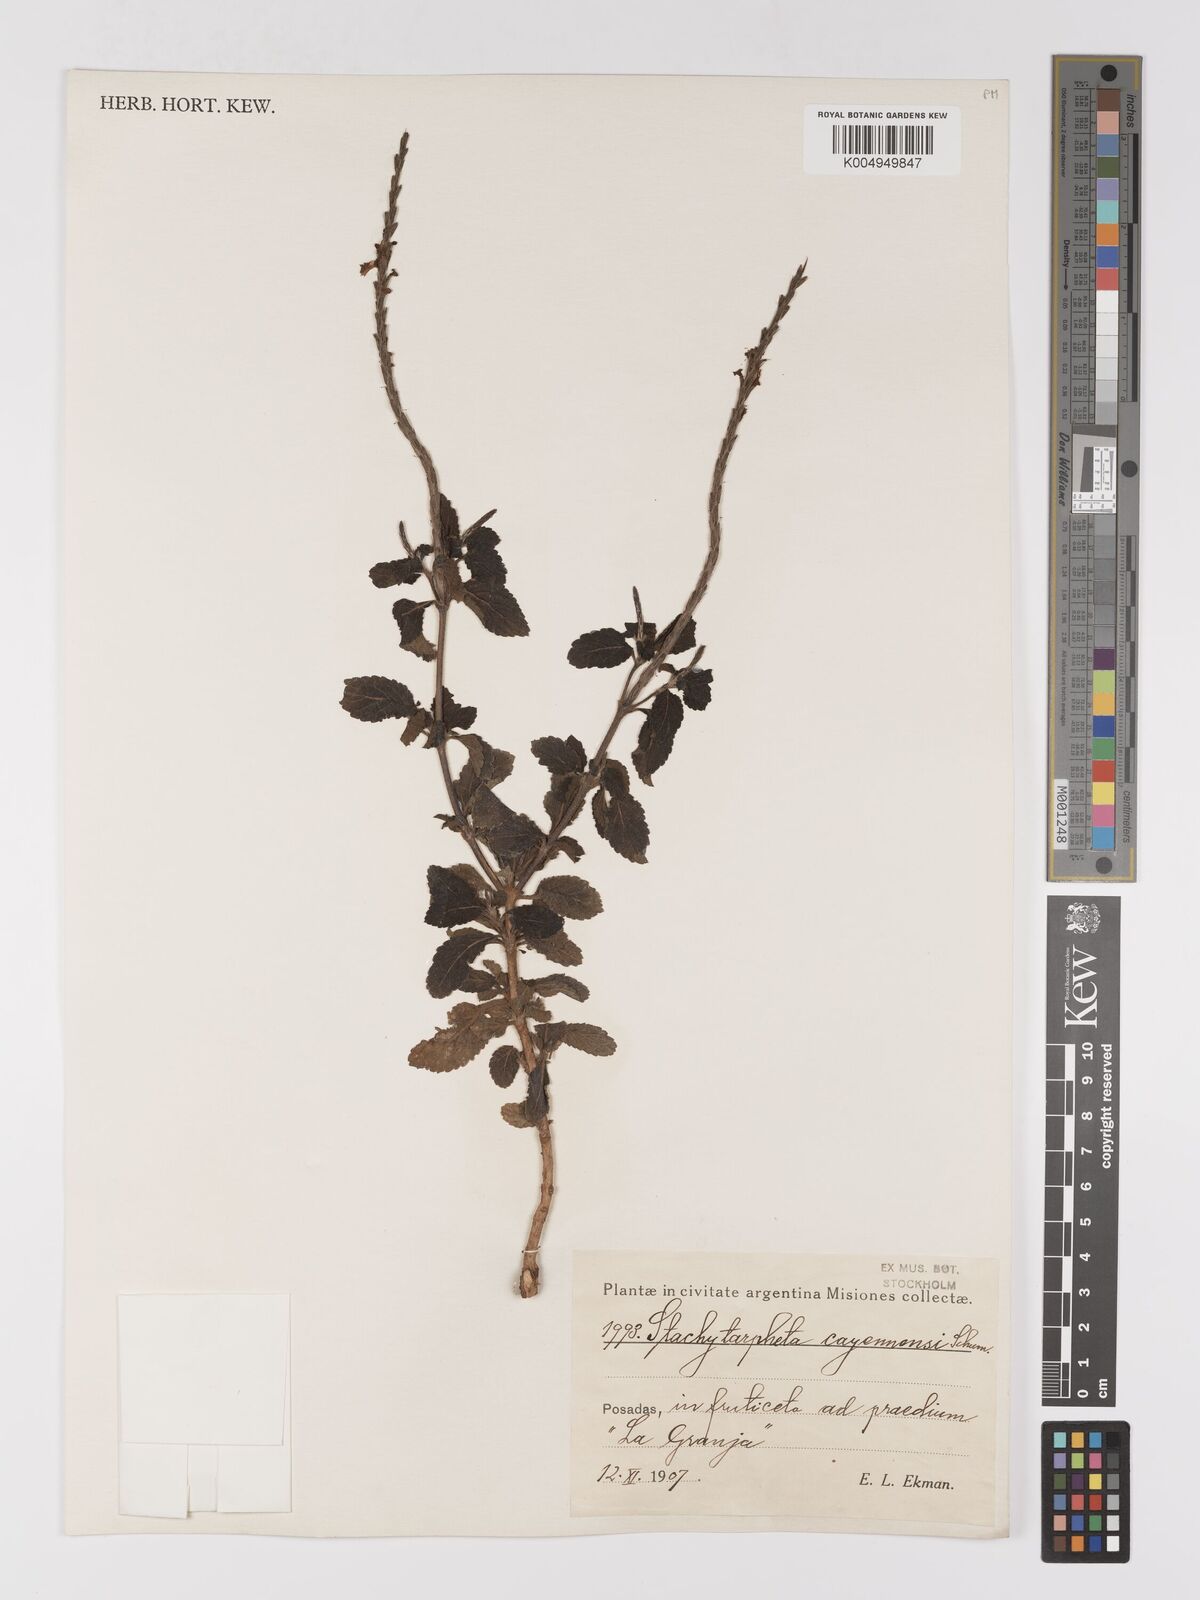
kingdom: Plantae
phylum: Tracheophyta
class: Magnoliopsida
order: Lamiales
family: Verbenaceae
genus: Stachytarpheta
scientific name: Stachytarpheta cayennensis
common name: Cayenne porterweed
